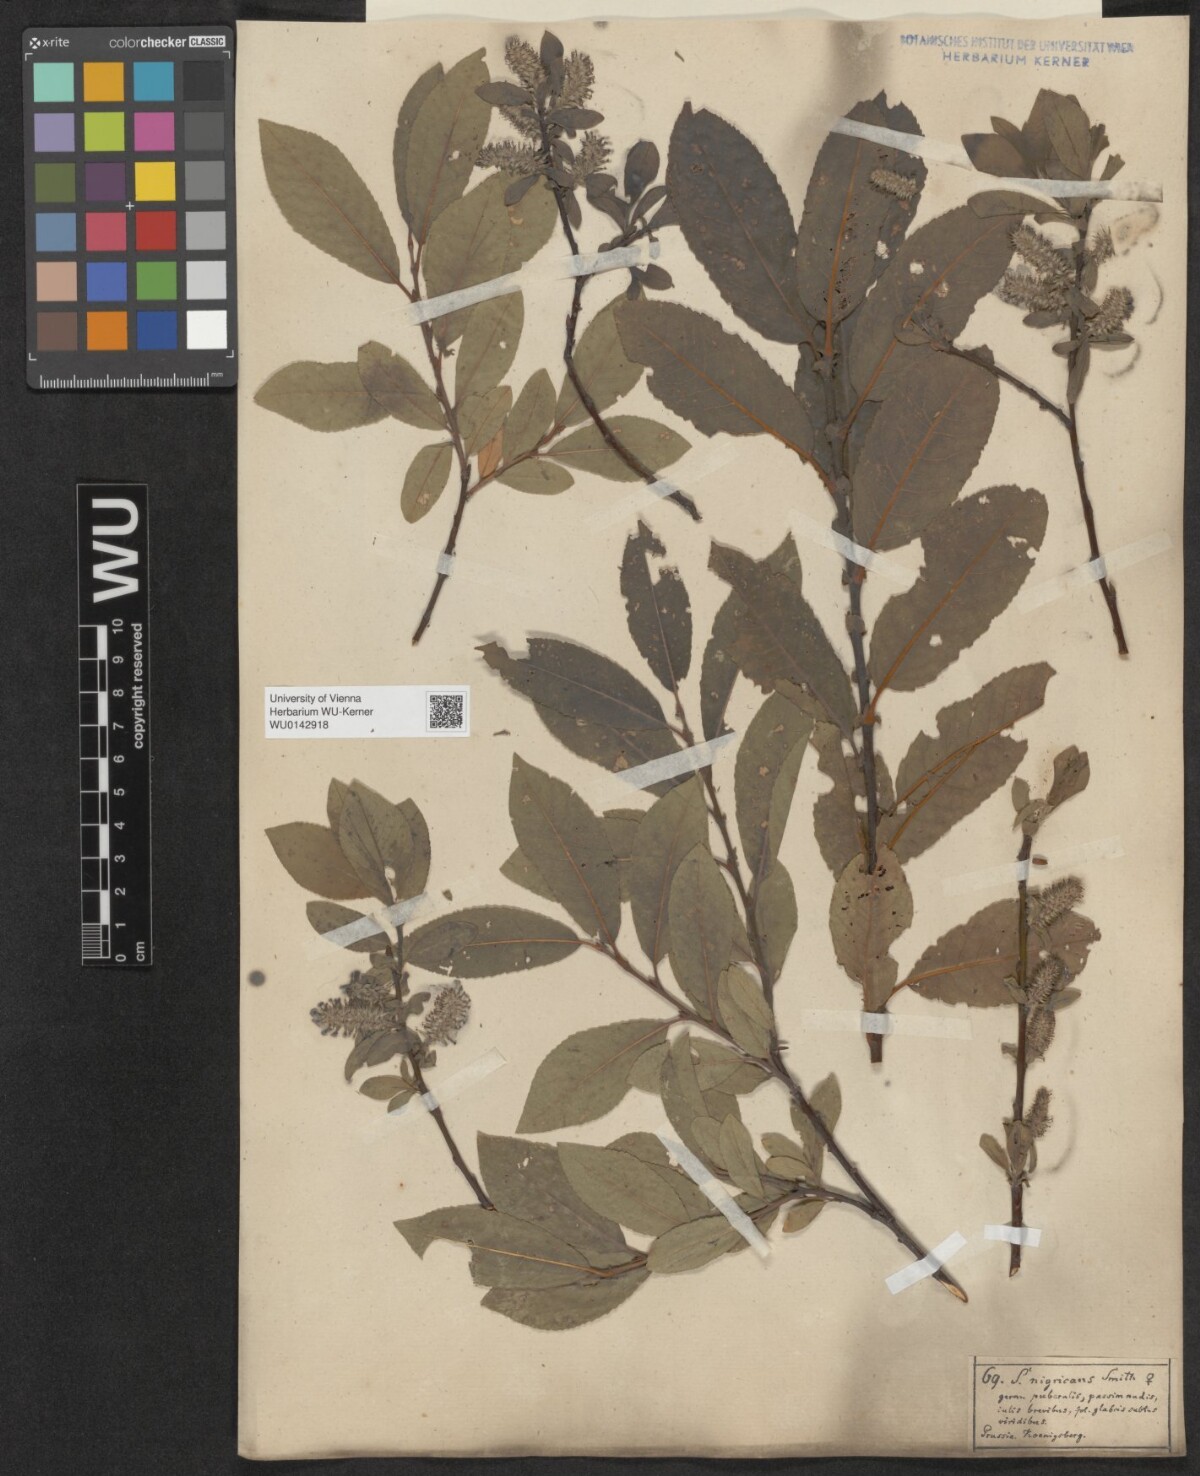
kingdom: Plantae
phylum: Tracheophyta
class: Magnoliopsida
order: Malpighiales
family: Salicaceae
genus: Salix
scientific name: Salix myrsinifolia
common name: Dark-leaved willow
